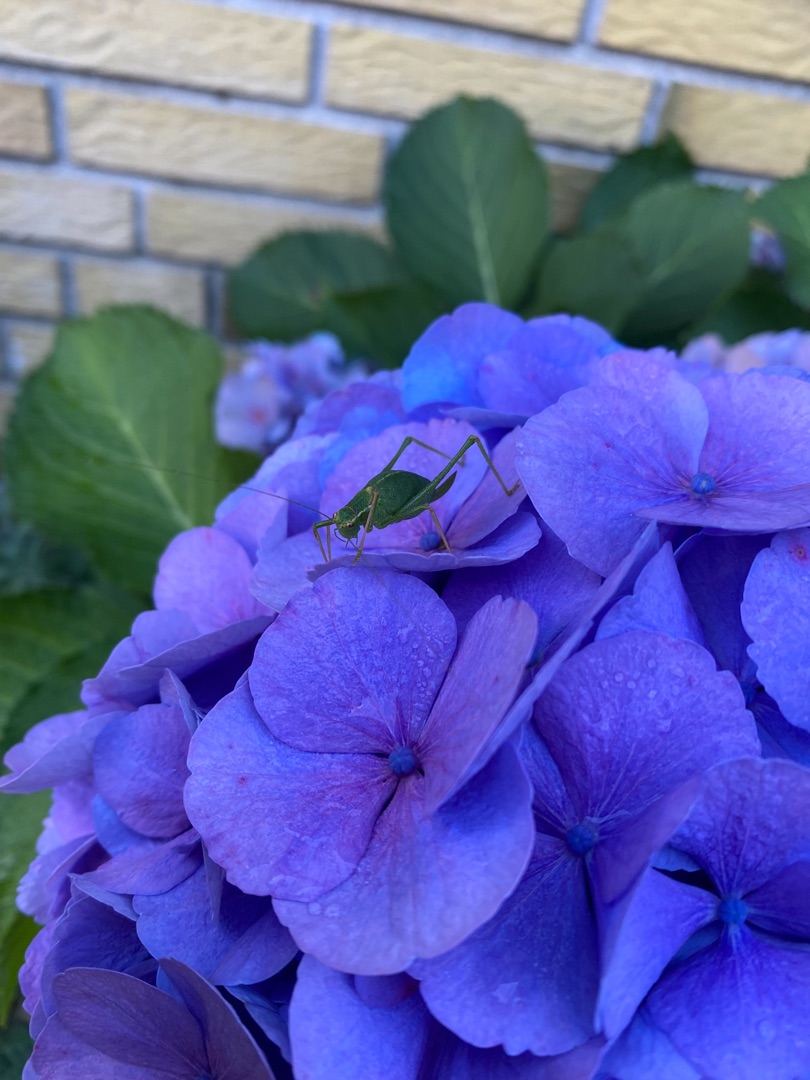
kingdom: Animalia
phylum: Arthropoda
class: Insecta
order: Orthoptera
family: Tettigoniidae
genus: Leptophyes
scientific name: Leptophyes punctatissima
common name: Krumknivgræshoppe
